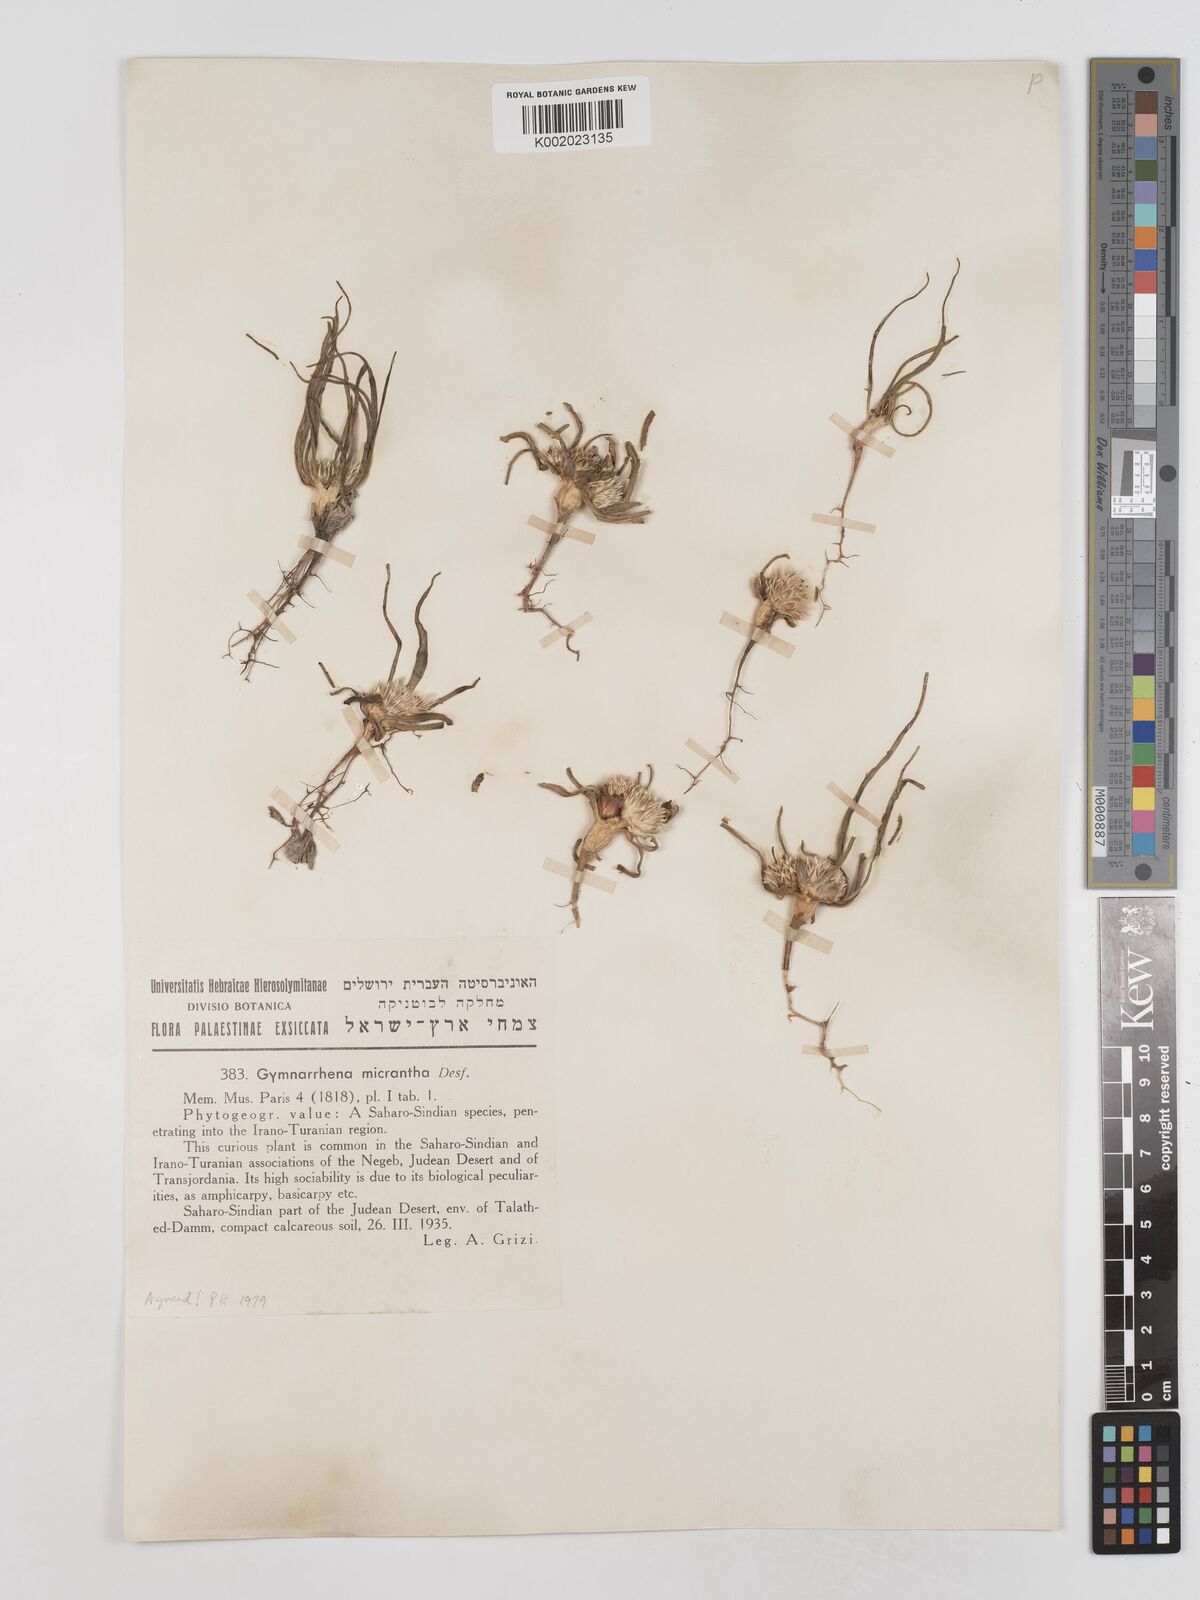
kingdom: Plantae
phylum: Tracheophyta
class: Magnoliopsida
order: Asterales
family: Asteraceae
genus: Gymnarrhena
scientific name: Gymnarrhena micrantha
